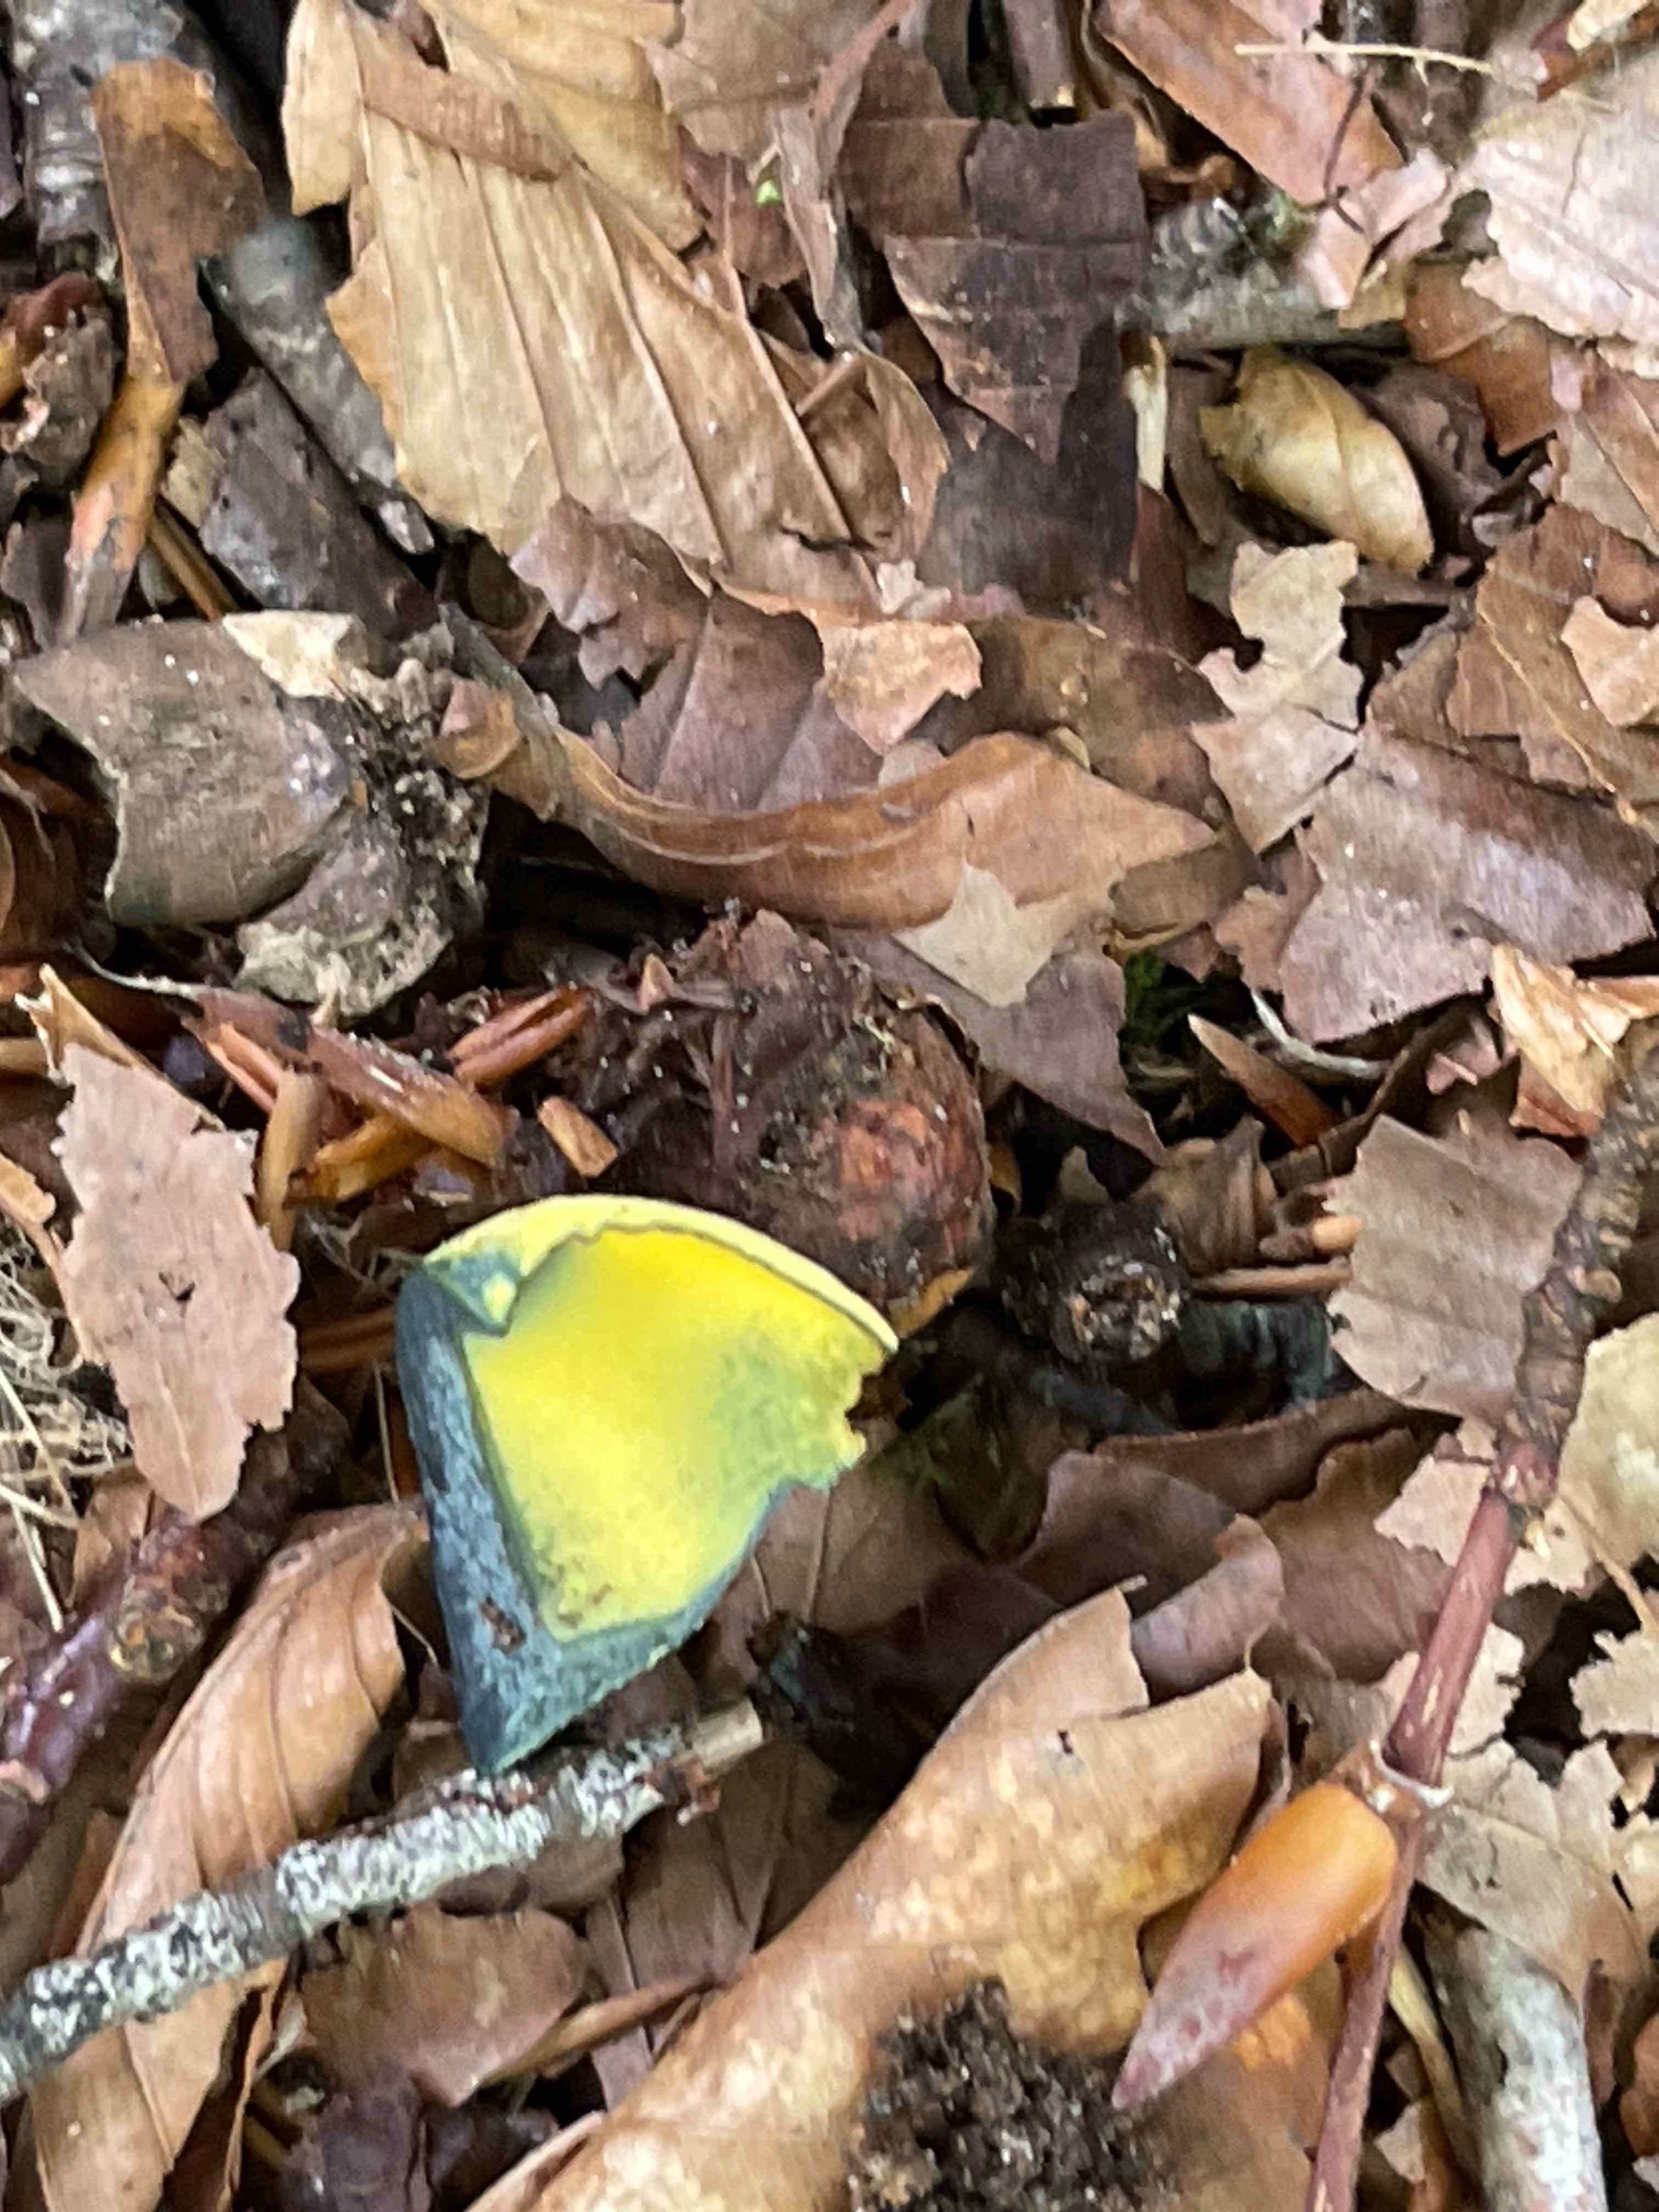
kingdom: Fungi
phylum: Basidiomycota
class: Agaricomycetes
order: Boletales
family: Boletaceae
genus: Neoboletus
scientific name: Neoboletus praestigiator
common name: gul indigorørhat
